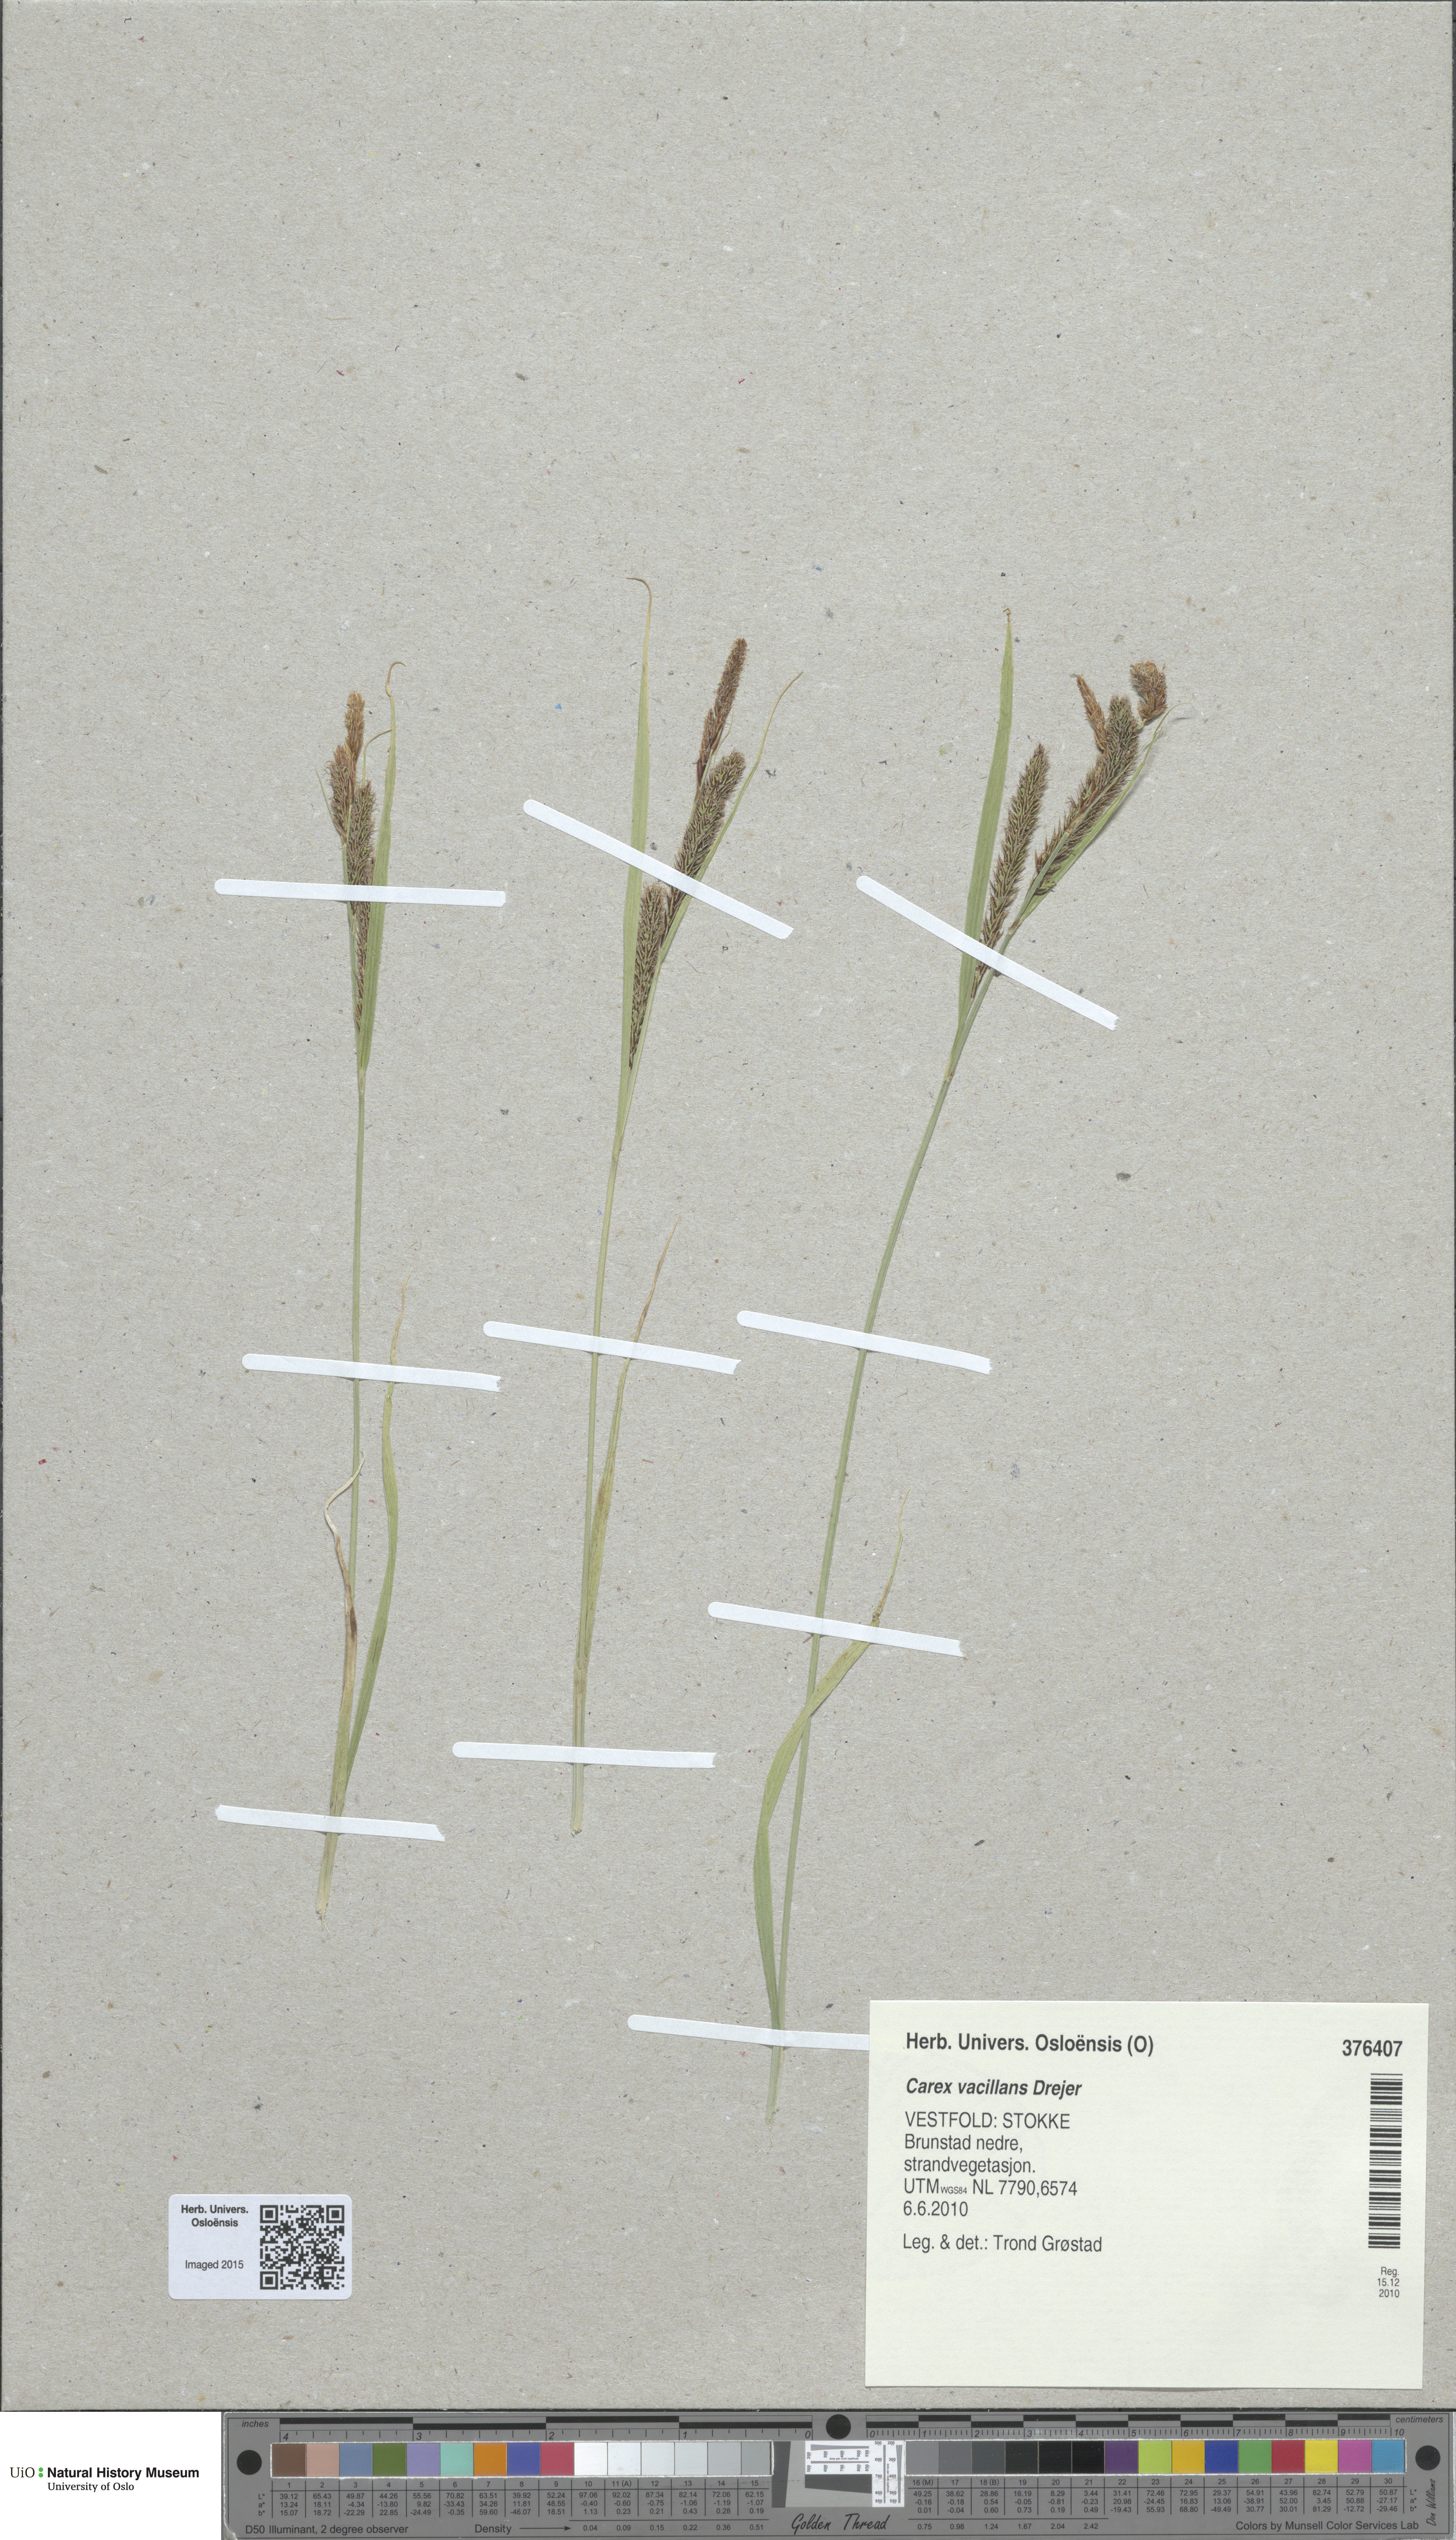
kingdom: Plantae
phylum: Tracheophyta
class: Liliopsida
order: Poales
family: Cyperaceae
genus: Carex
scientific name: Carex vacillans
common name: Sedge
